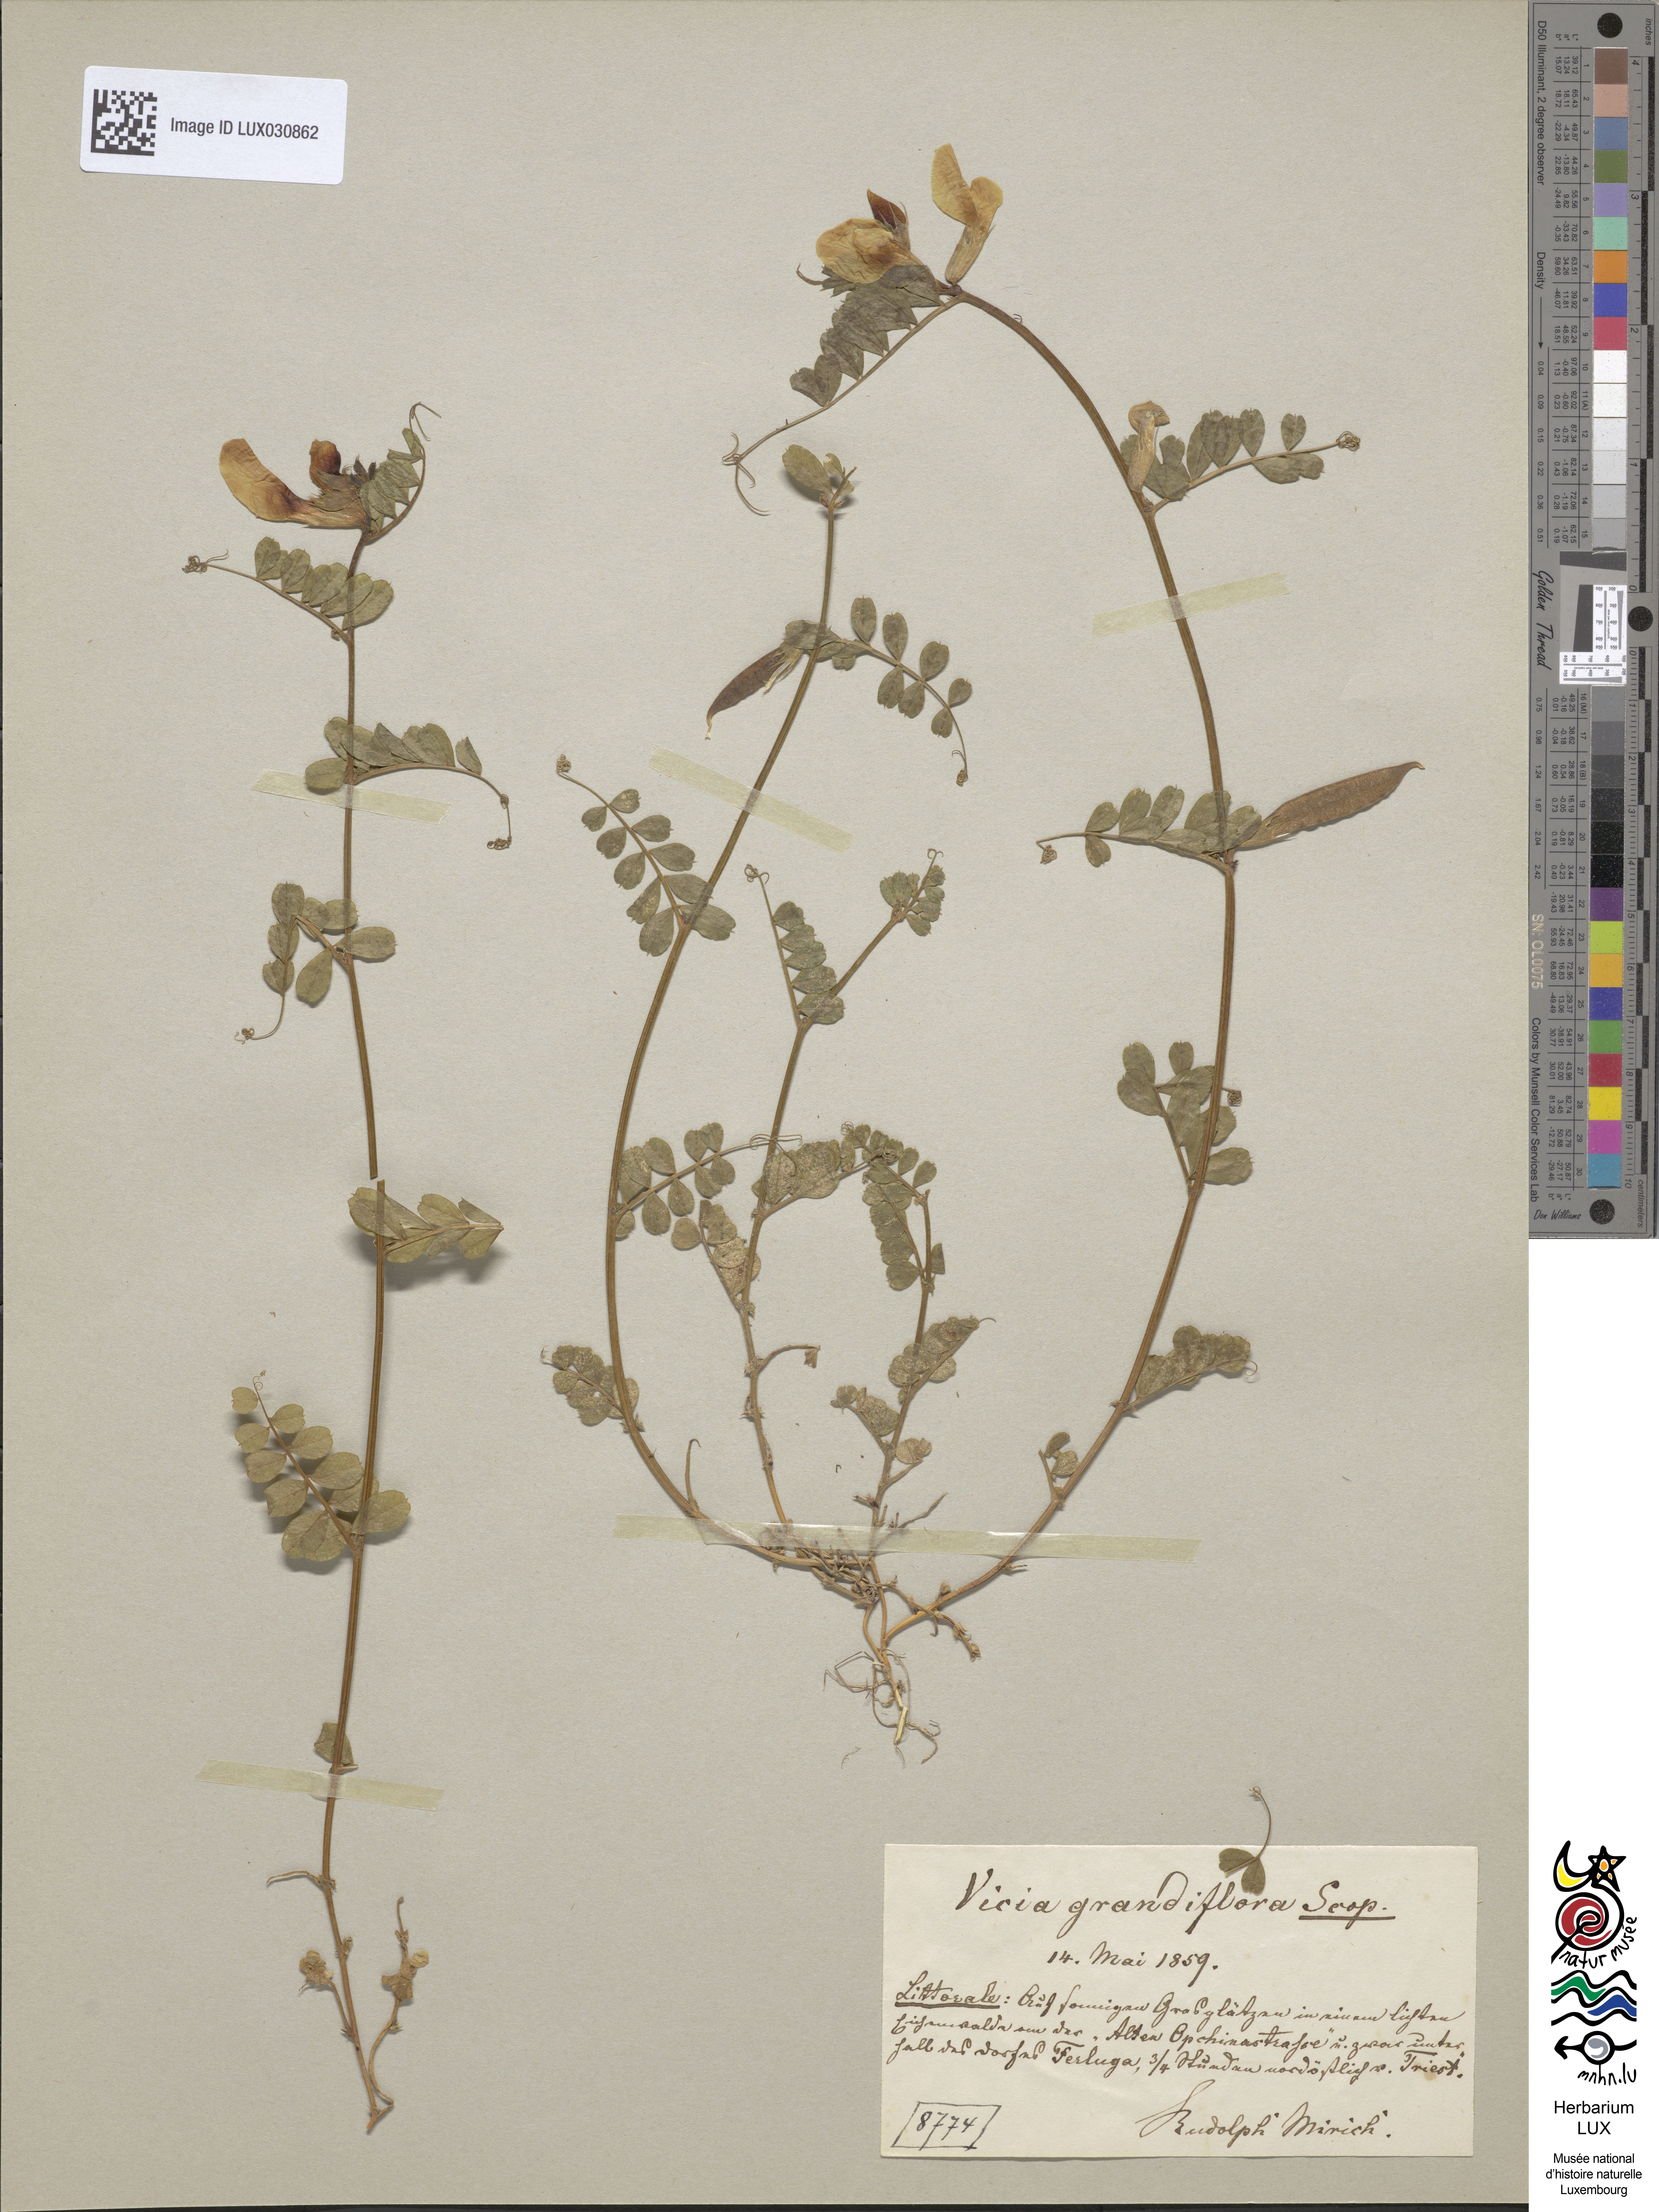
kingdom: Plantae
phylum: Tracheophyta
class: Magnoliopsida
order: Fabales
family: Fabaceae
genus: Vicia
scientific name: Vicia grandiflora
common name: Large yellow vetch
